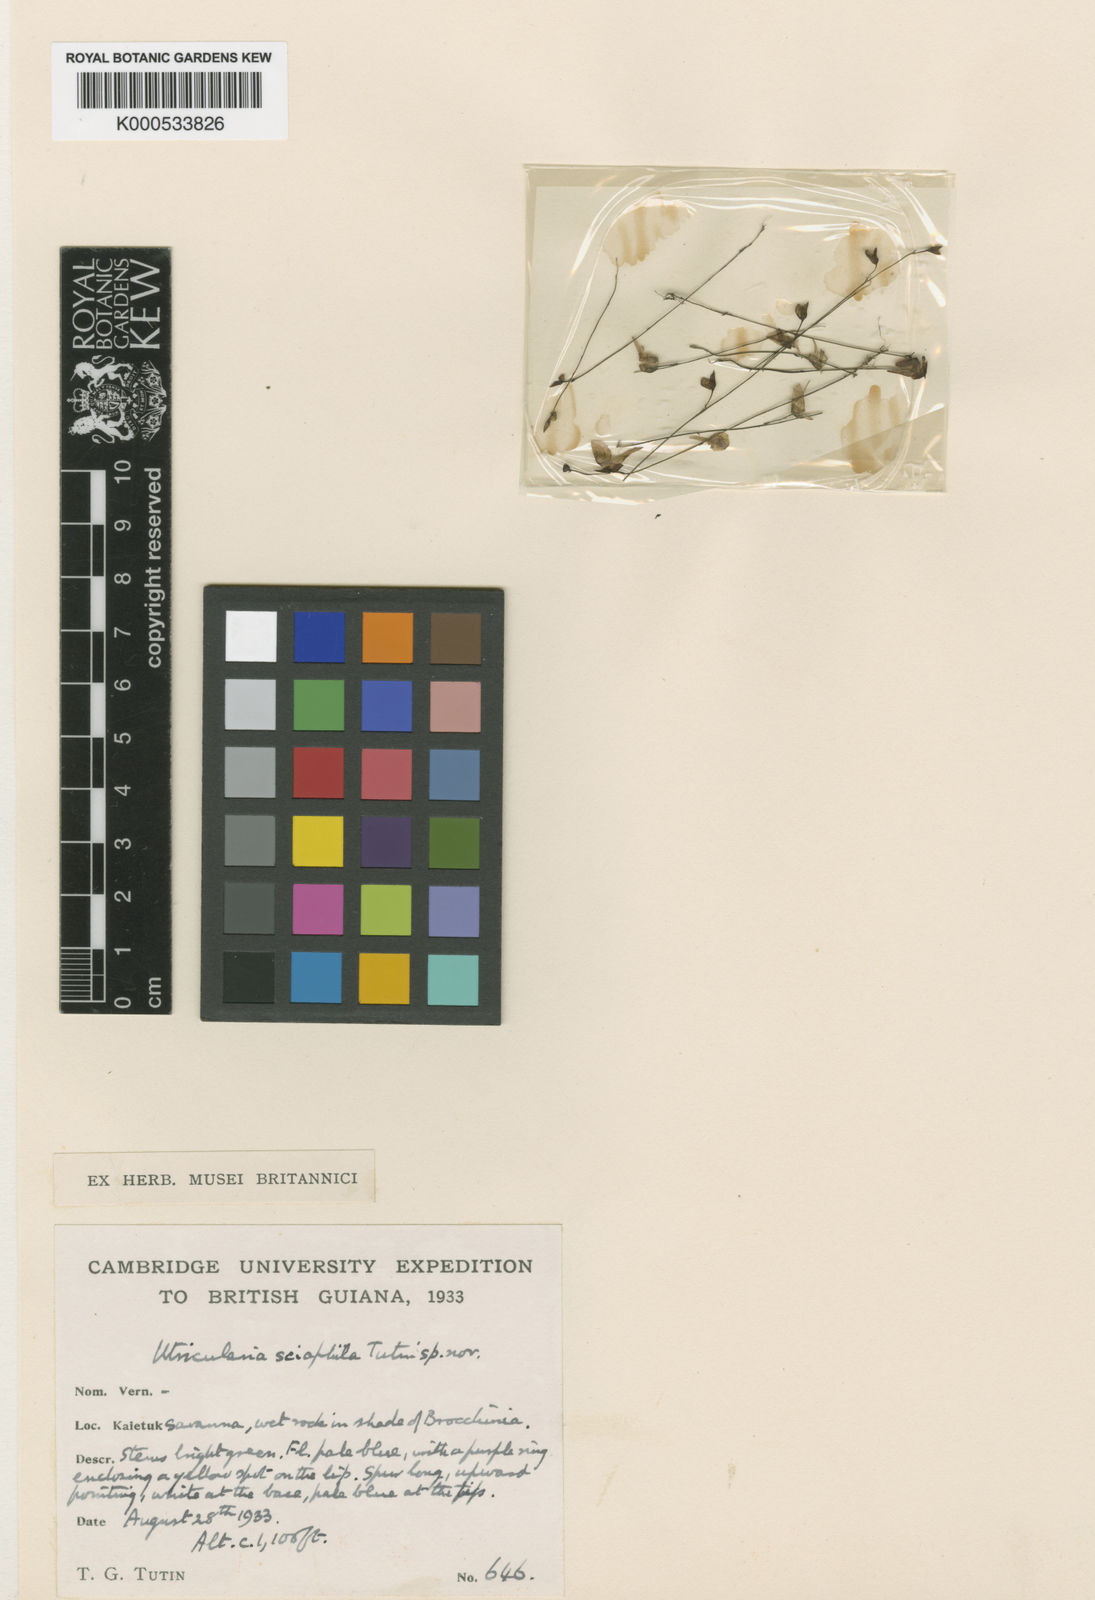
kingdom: Plantae
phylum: Tracheophyta
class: Magnoliopsida
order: Lamiales
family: Lentibulariaceae
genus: Utricularia
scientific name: Utricularia pubescens
